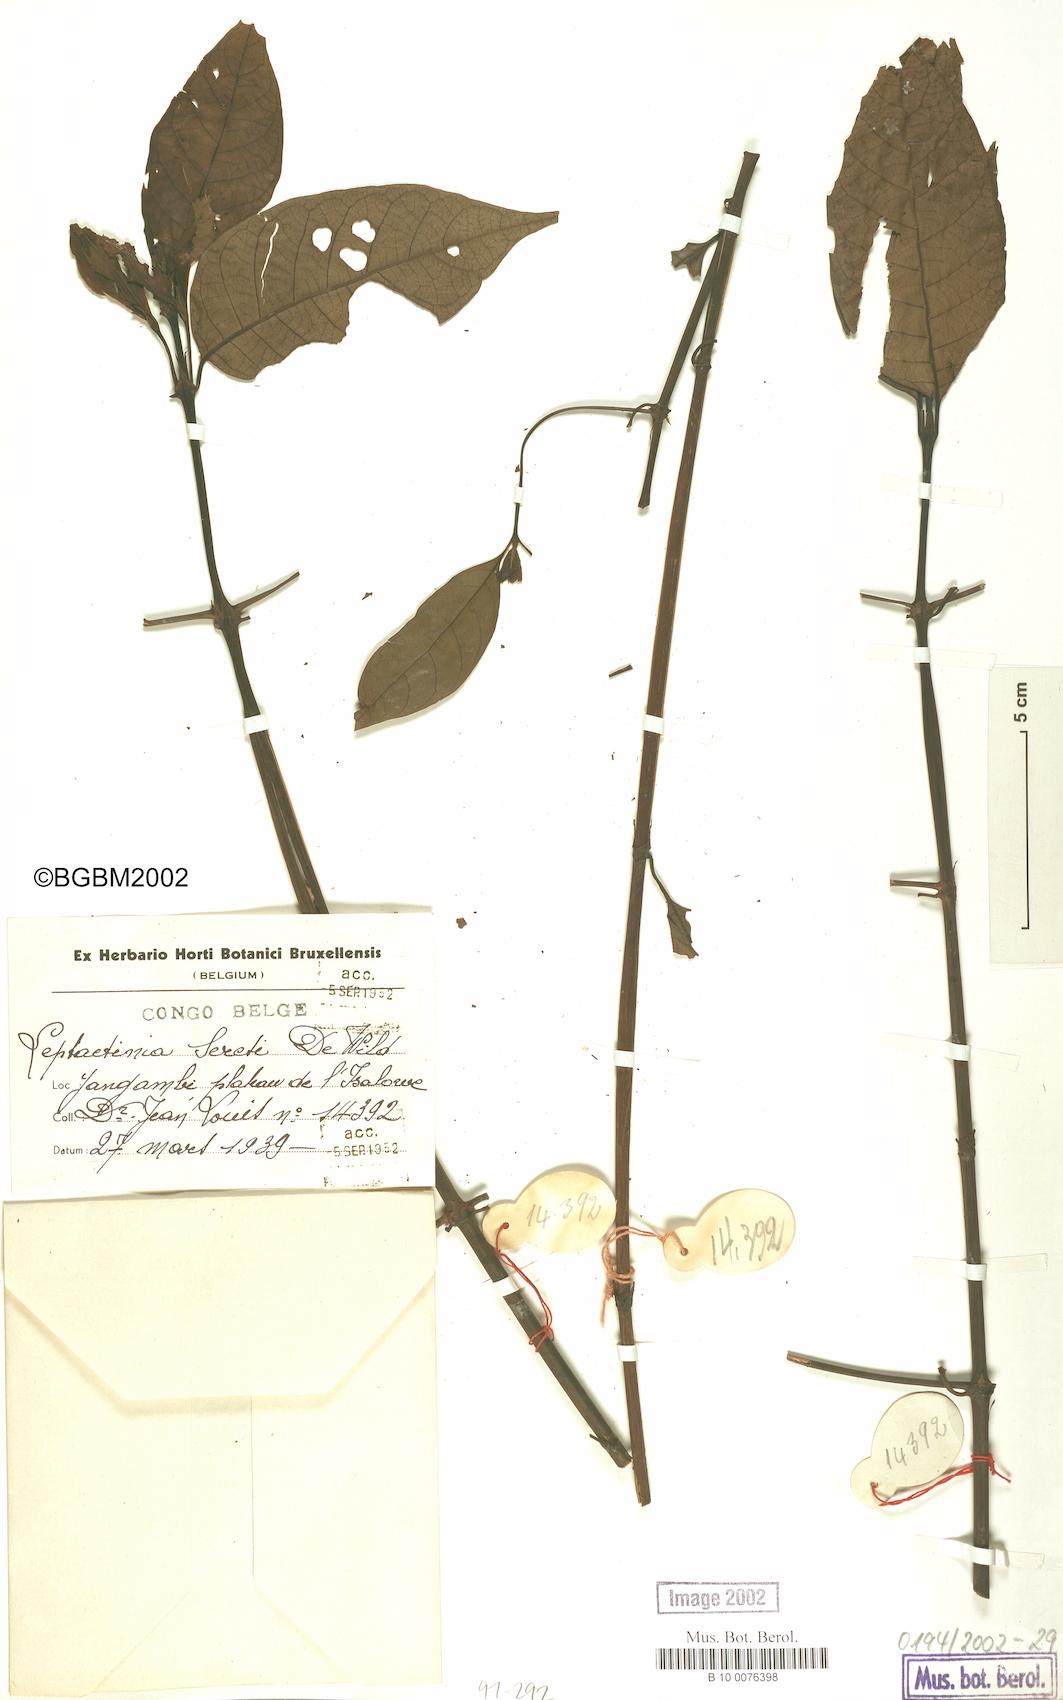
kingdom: Plantae
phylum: Tracheophyta
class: Magnoliopsida
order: Gentianales
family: Rubiaceae
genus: Leptactina
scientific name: Leptactina laurentiana
